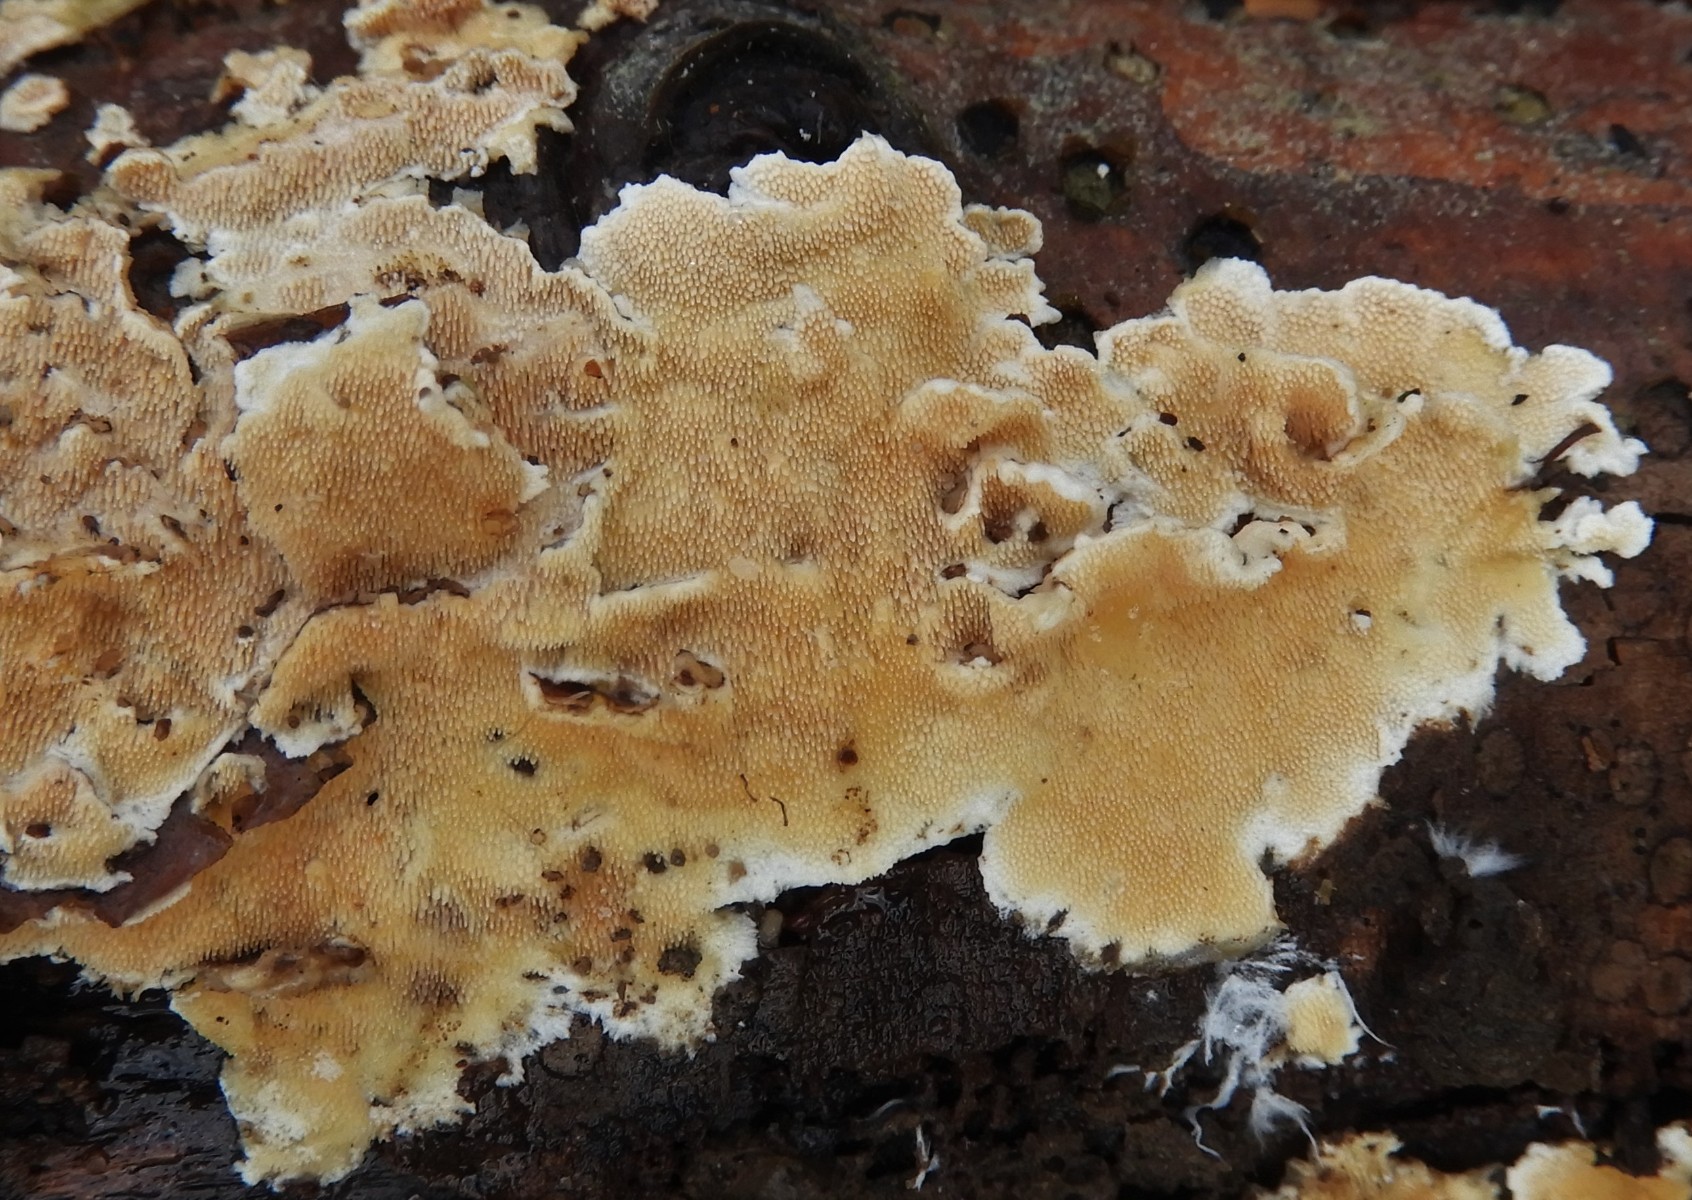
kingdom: Fungi
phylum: Basidiomycota
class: Agaricomycetes
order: Polyporales
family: Steccherinaceae
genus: Steccherinum
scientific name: Steccherinum ochraceum
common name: almindelig skønpig
